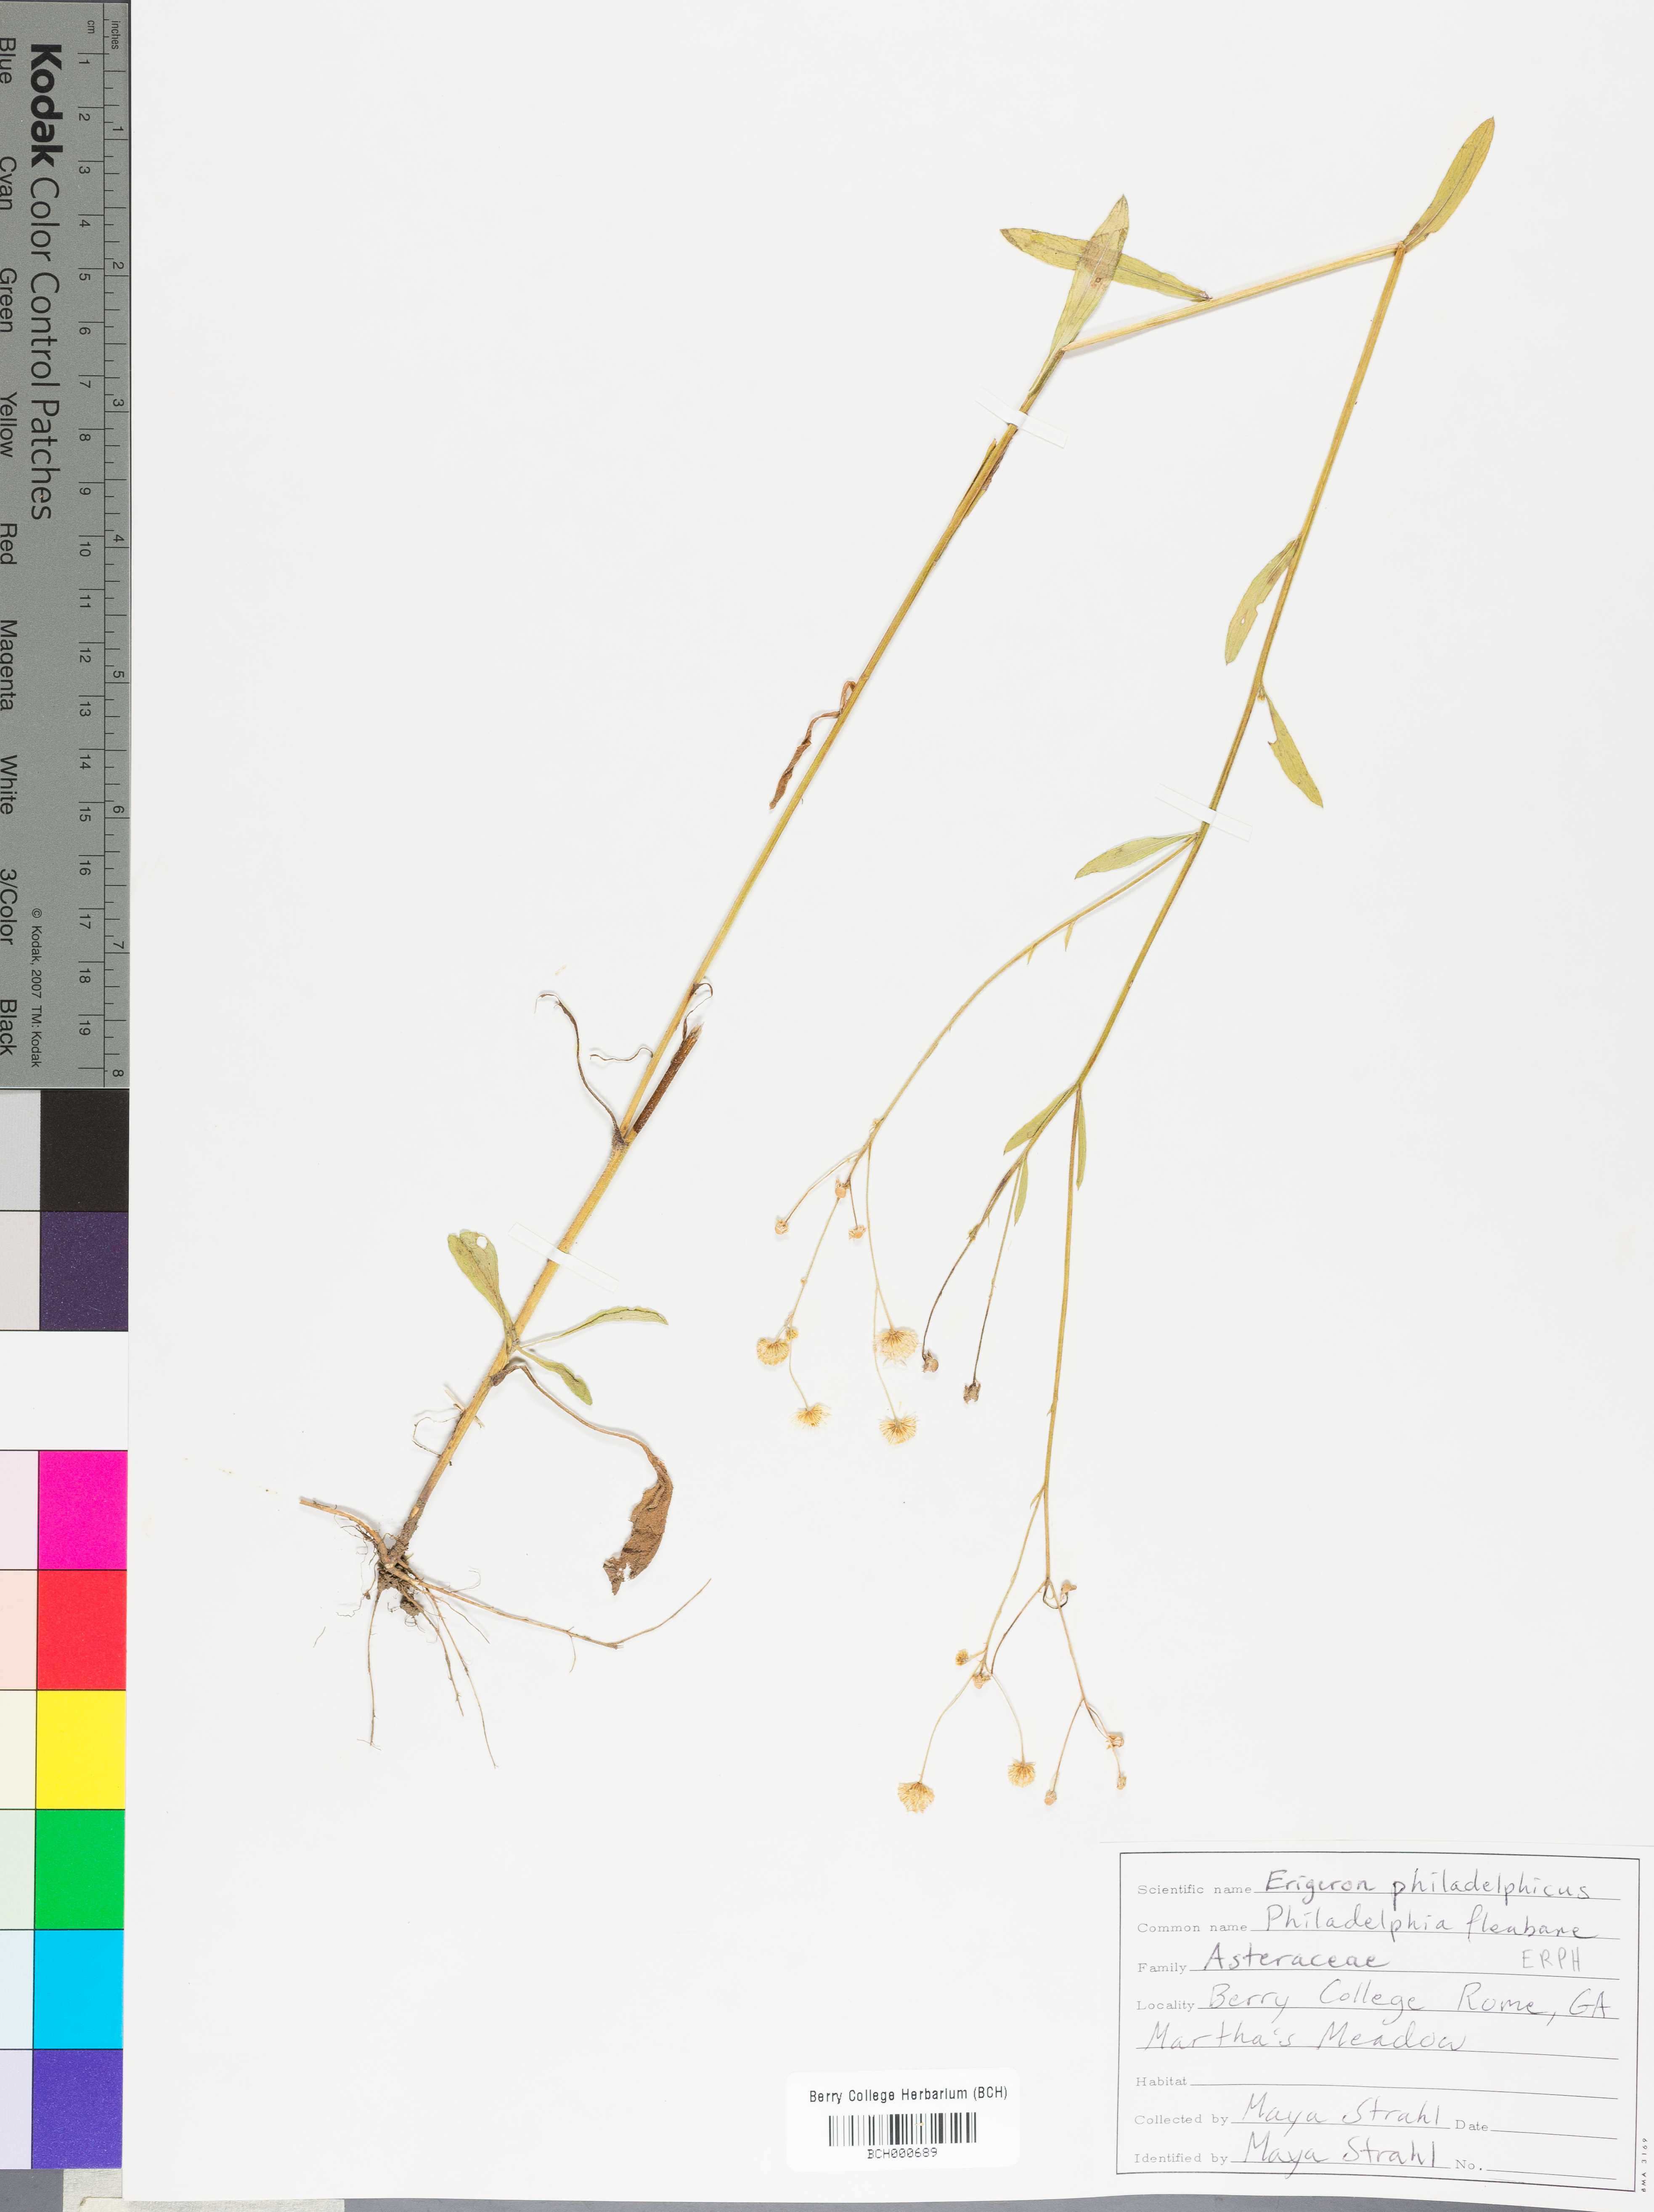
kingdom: Plantae
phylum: Tracheophyta
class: Magnoliopsida
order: Asterales
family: Asteraceae
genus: Erigeron
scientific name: Erigeron philadelphicus
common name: Robin's-plantain
